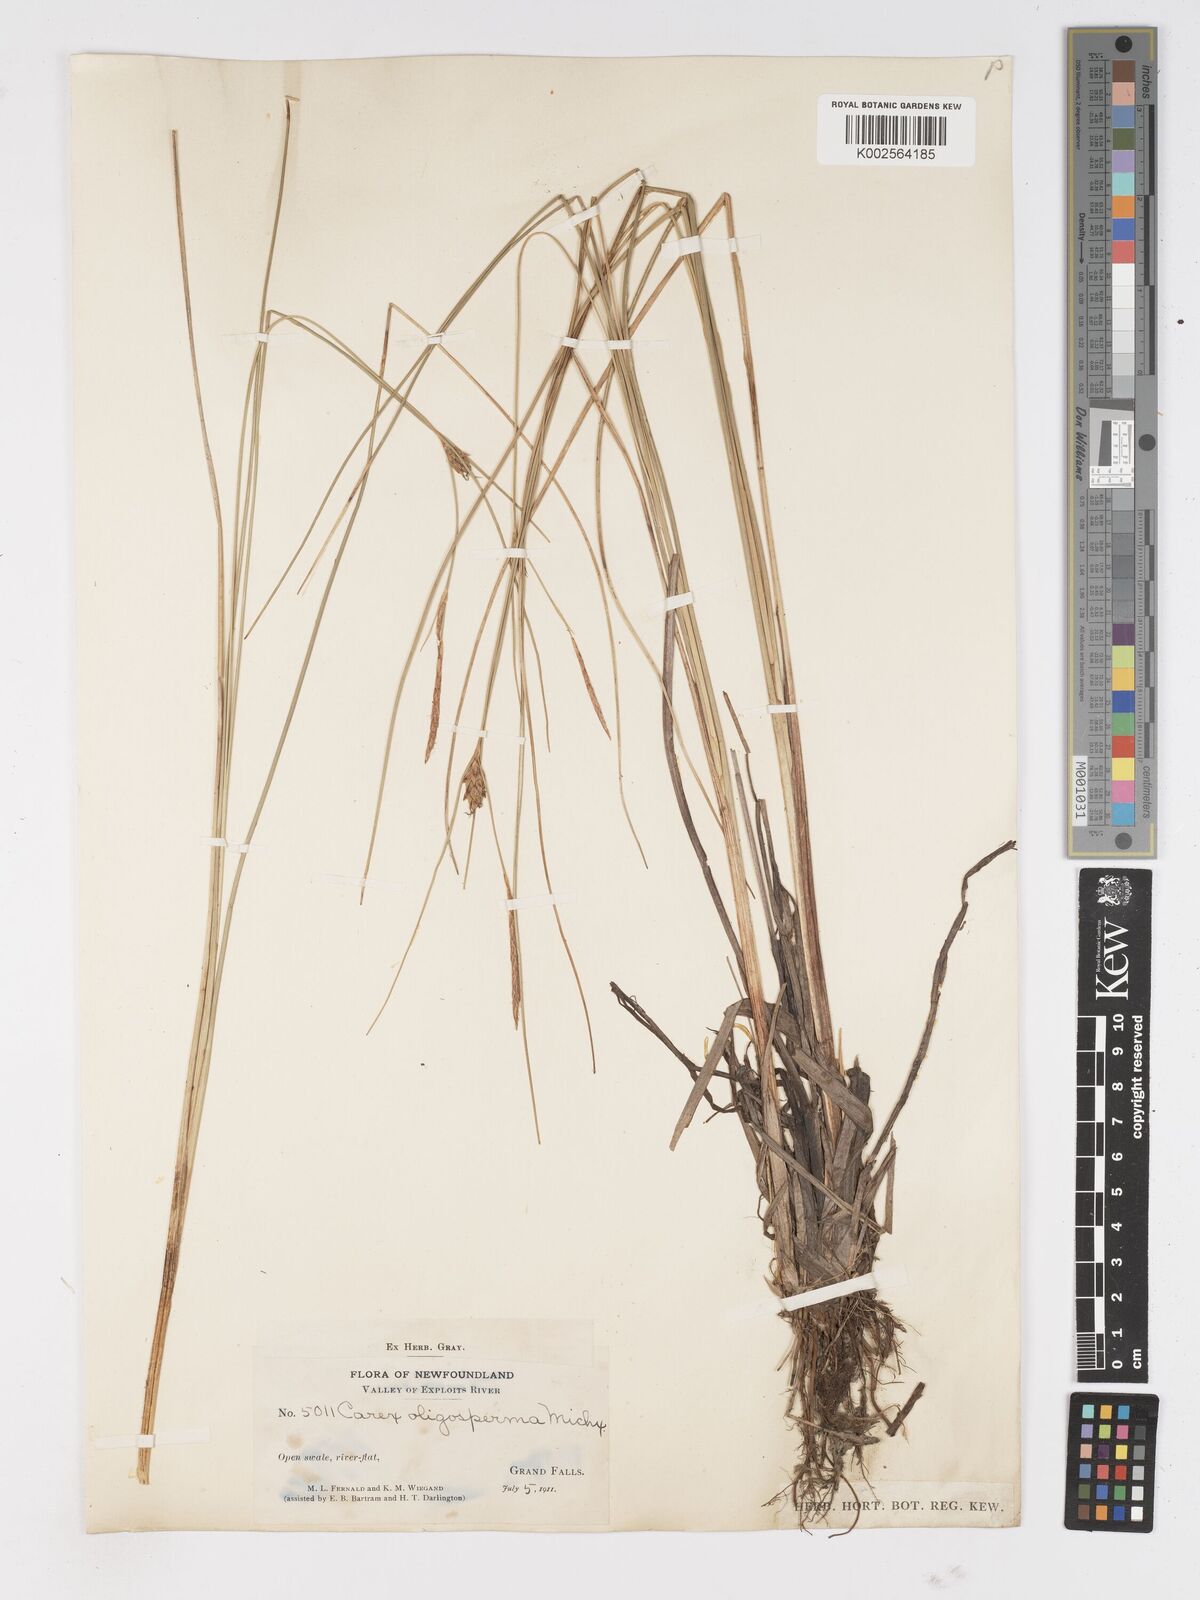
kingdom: Plantae
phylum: Tracheophyta
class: Liliopsida
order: Poales
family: Cyperaceae
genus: Carex
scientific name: Carex oligosperma
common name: Few-seed sedge
